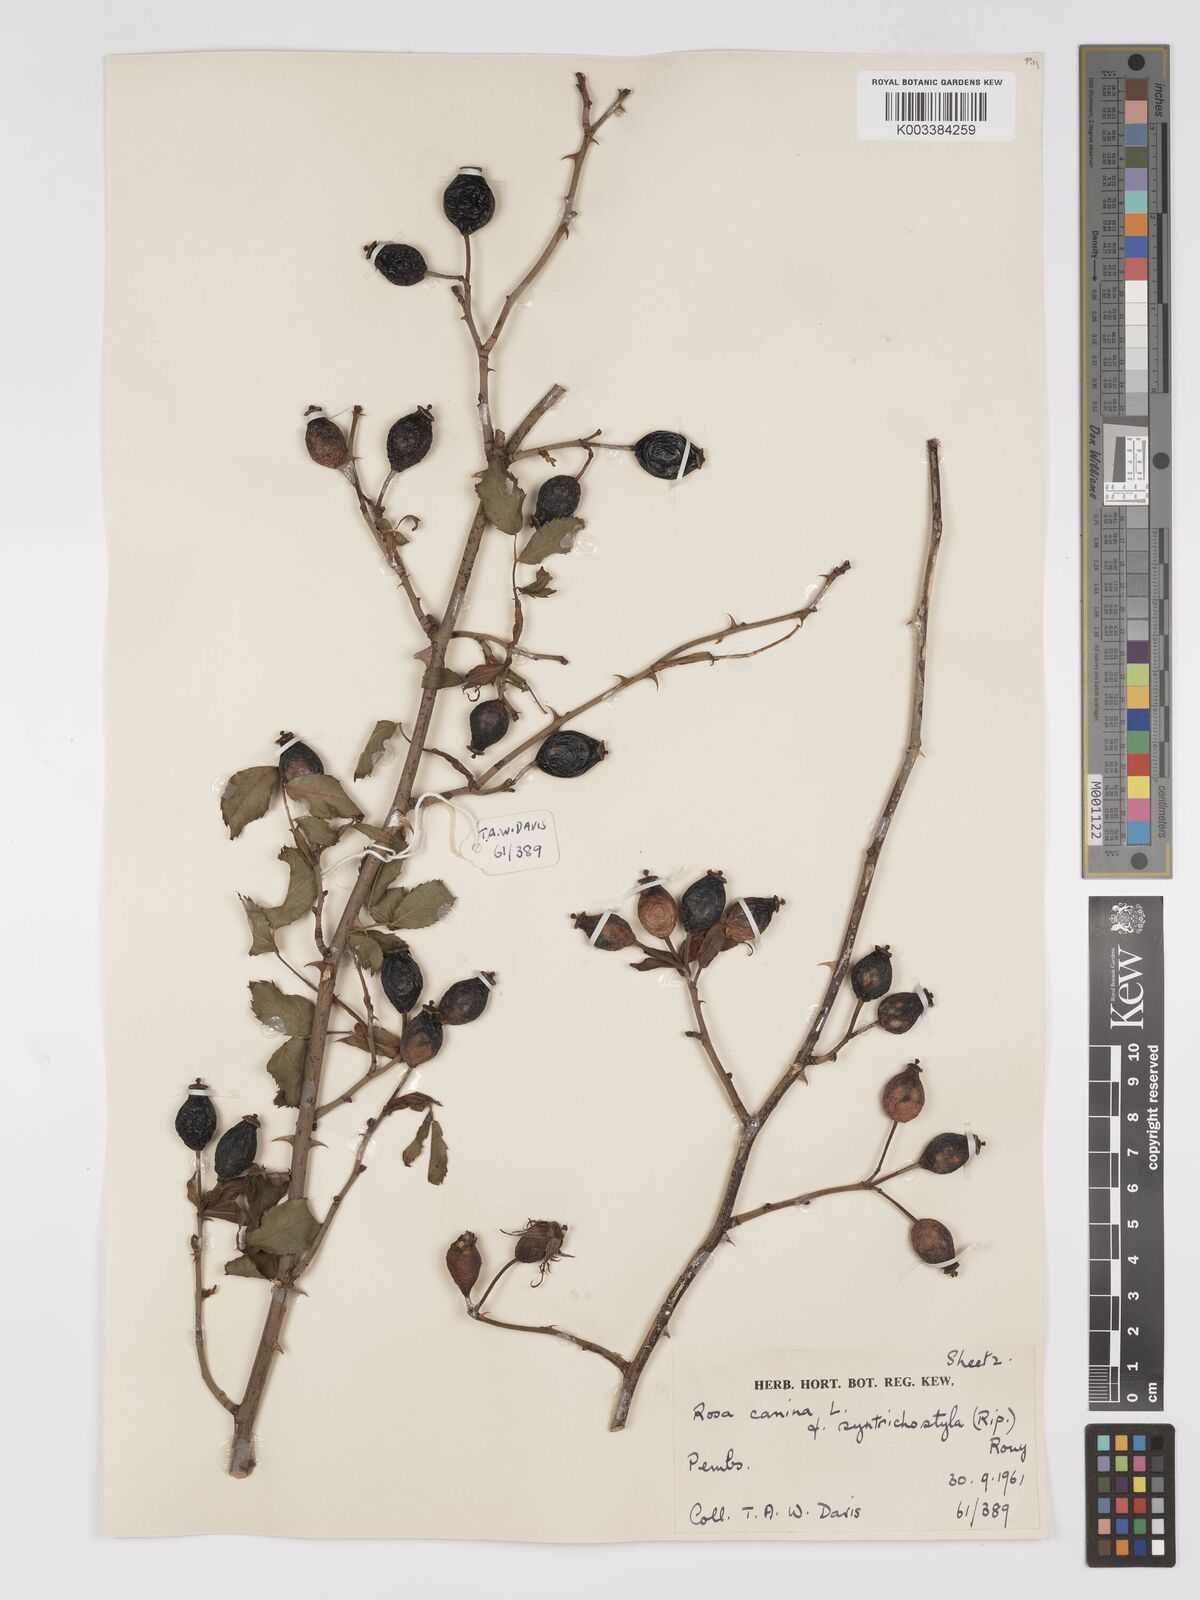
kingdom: Plantae
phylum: Tracheophyta
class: Magnoliopsida
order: Rosales
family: Rosaceae
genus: Rosa
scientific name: Rosa canina
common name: Dog rose
